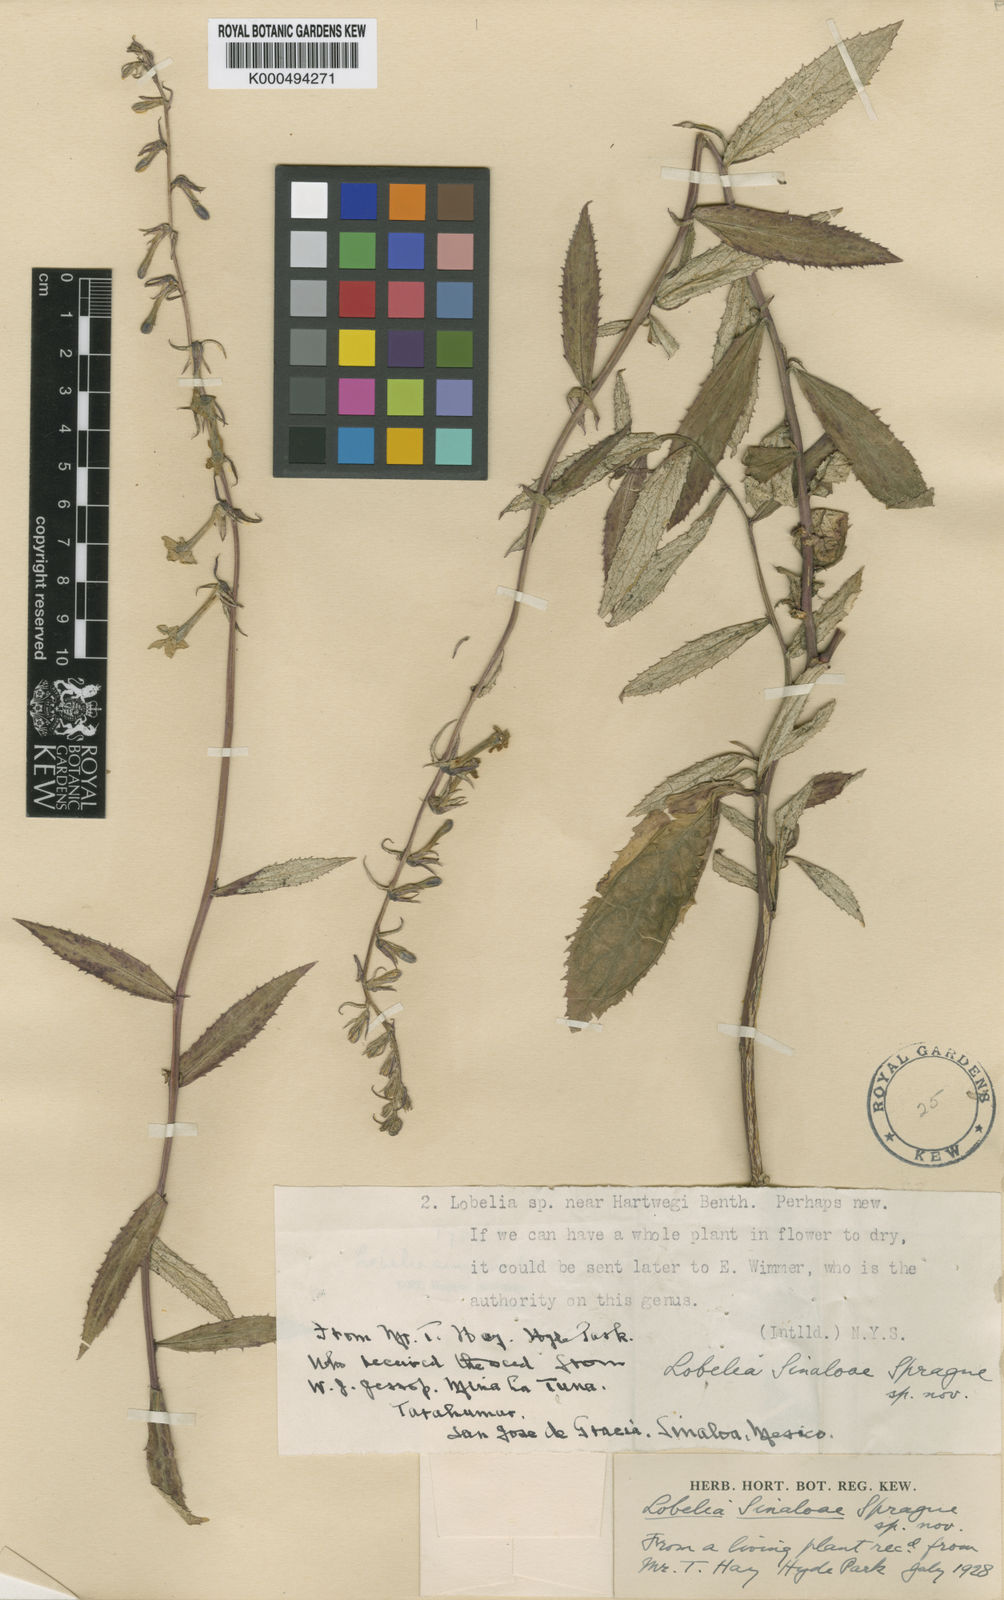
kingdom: Plantae
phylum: Tracheophyta
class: Magnoliopsida
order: Asterales
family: Campanulaceae
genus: Lobelia
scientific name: Lobelia sinaloae
